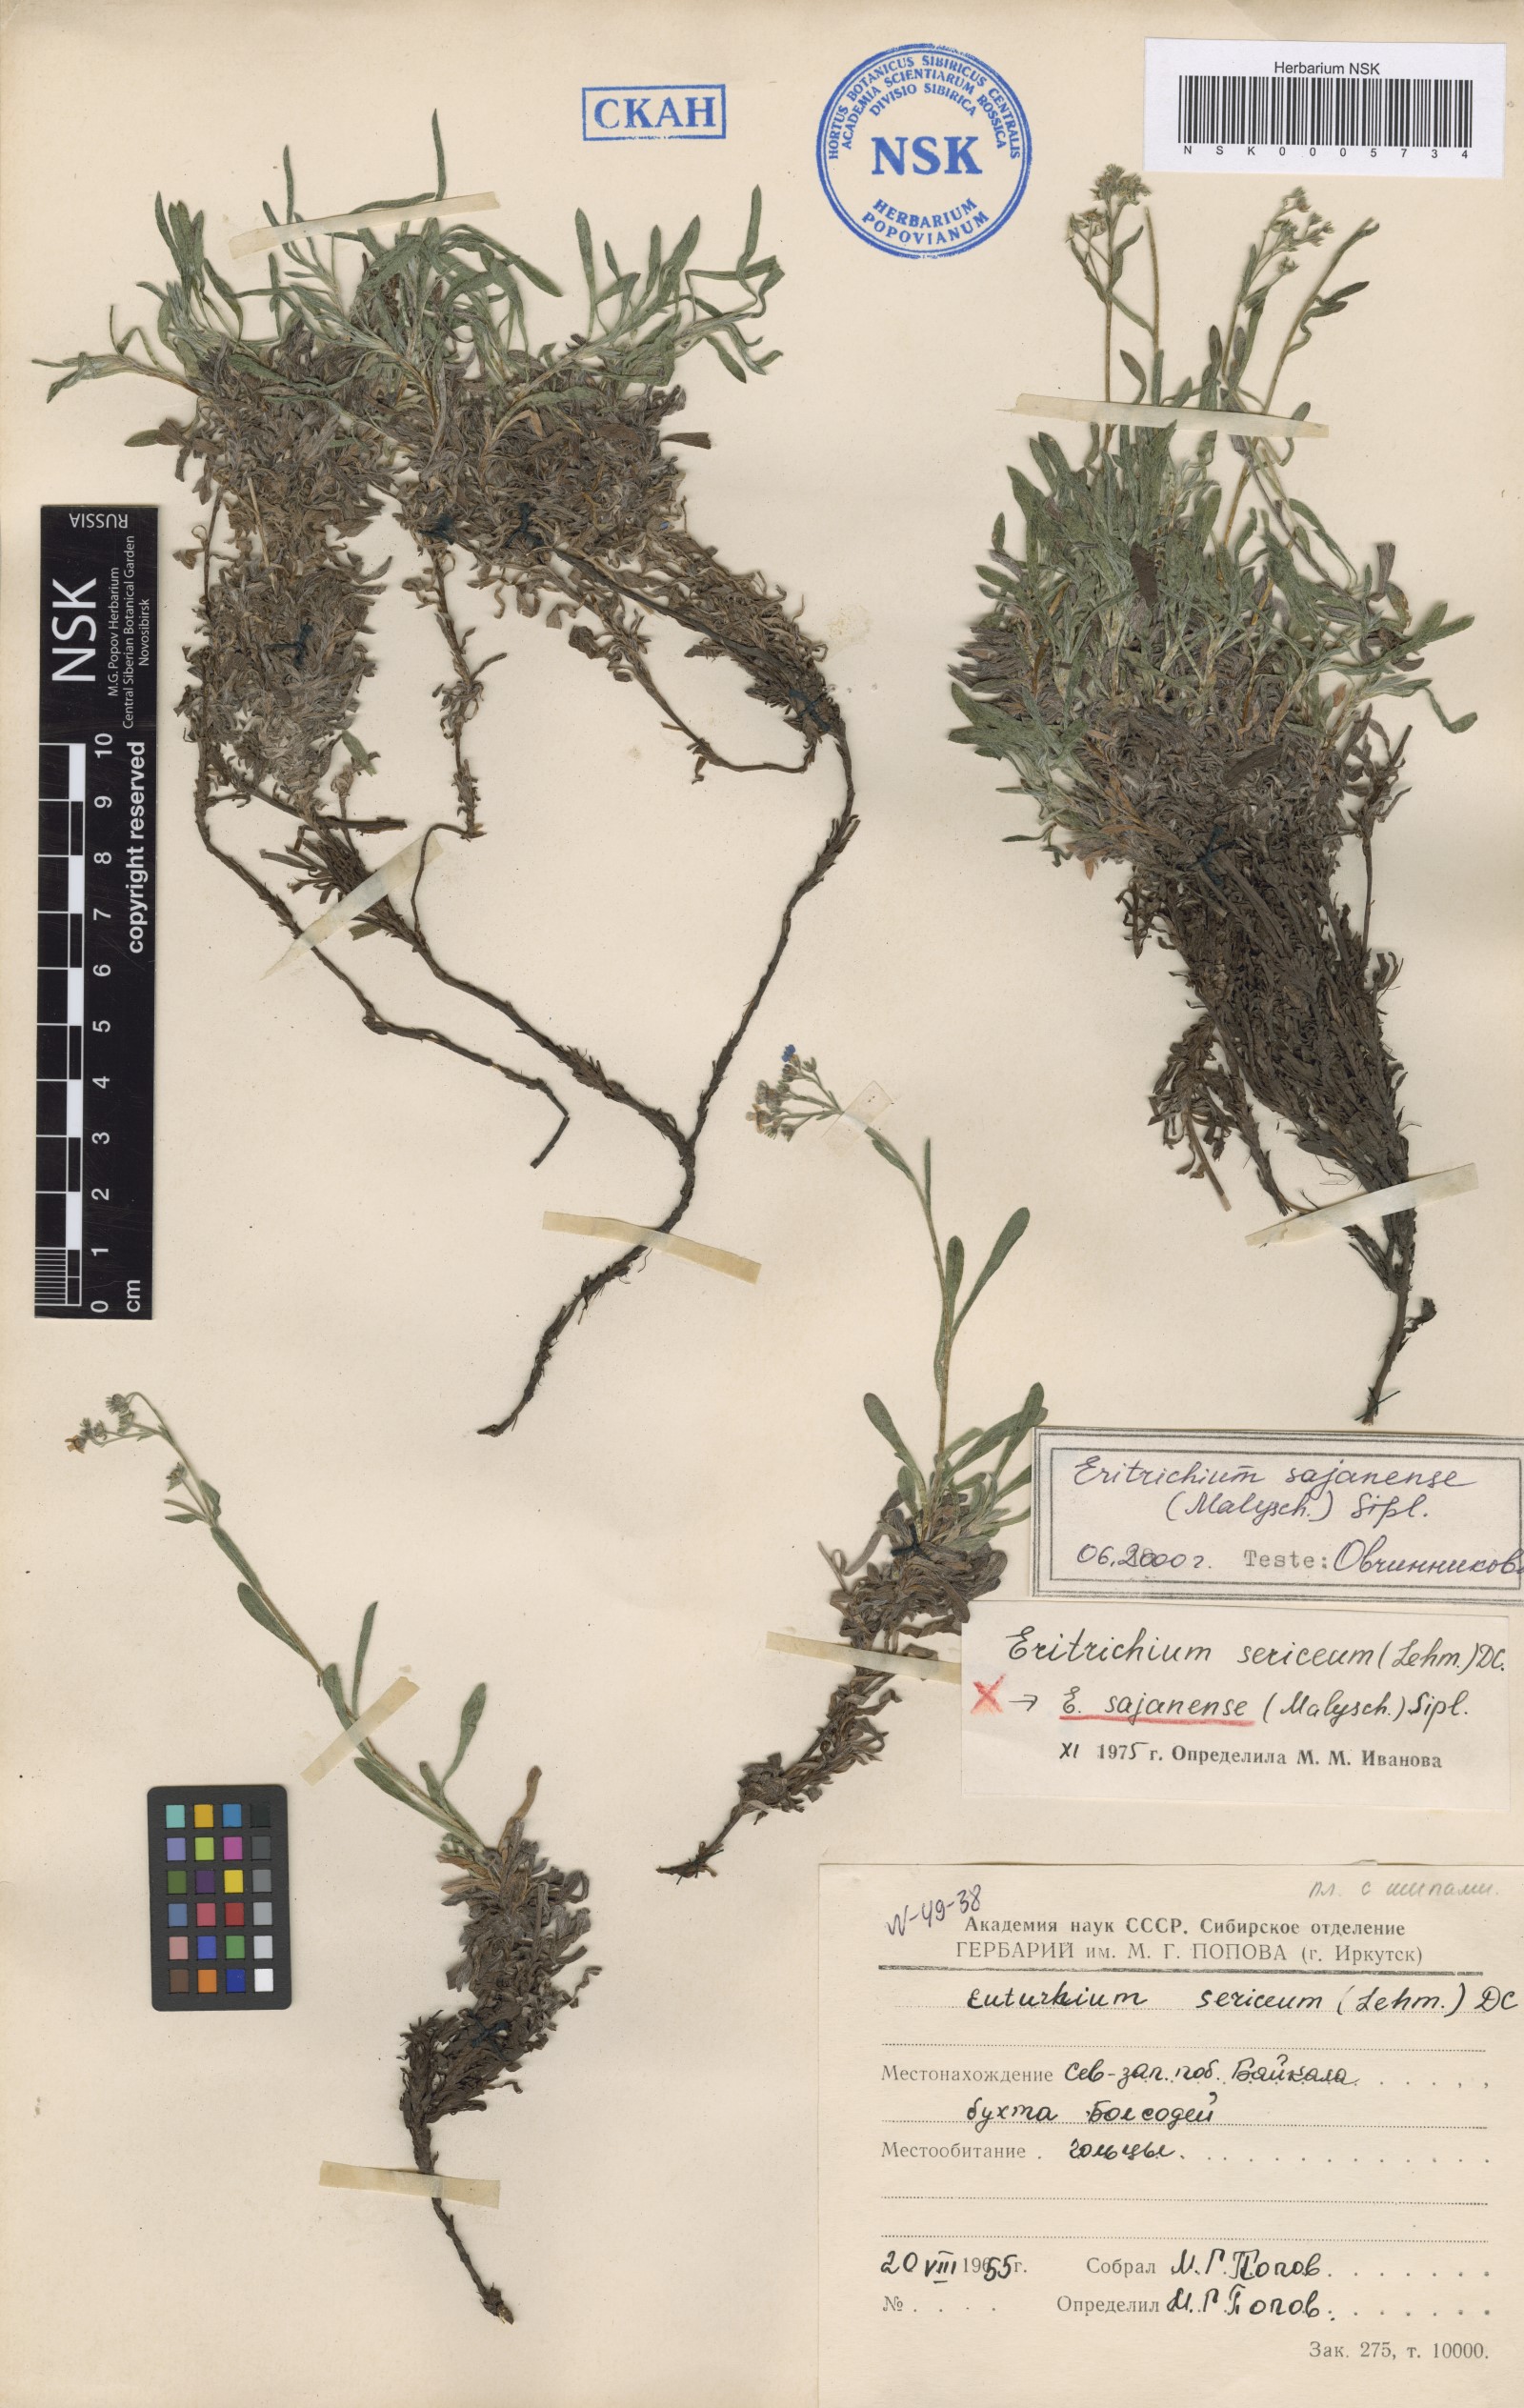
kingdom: Plantae
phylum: Tracheophyta
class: Magnoliopsida
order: Boraginales
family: Boraginaceae
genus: Eritrichium
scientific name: Eritrichium sajanense
